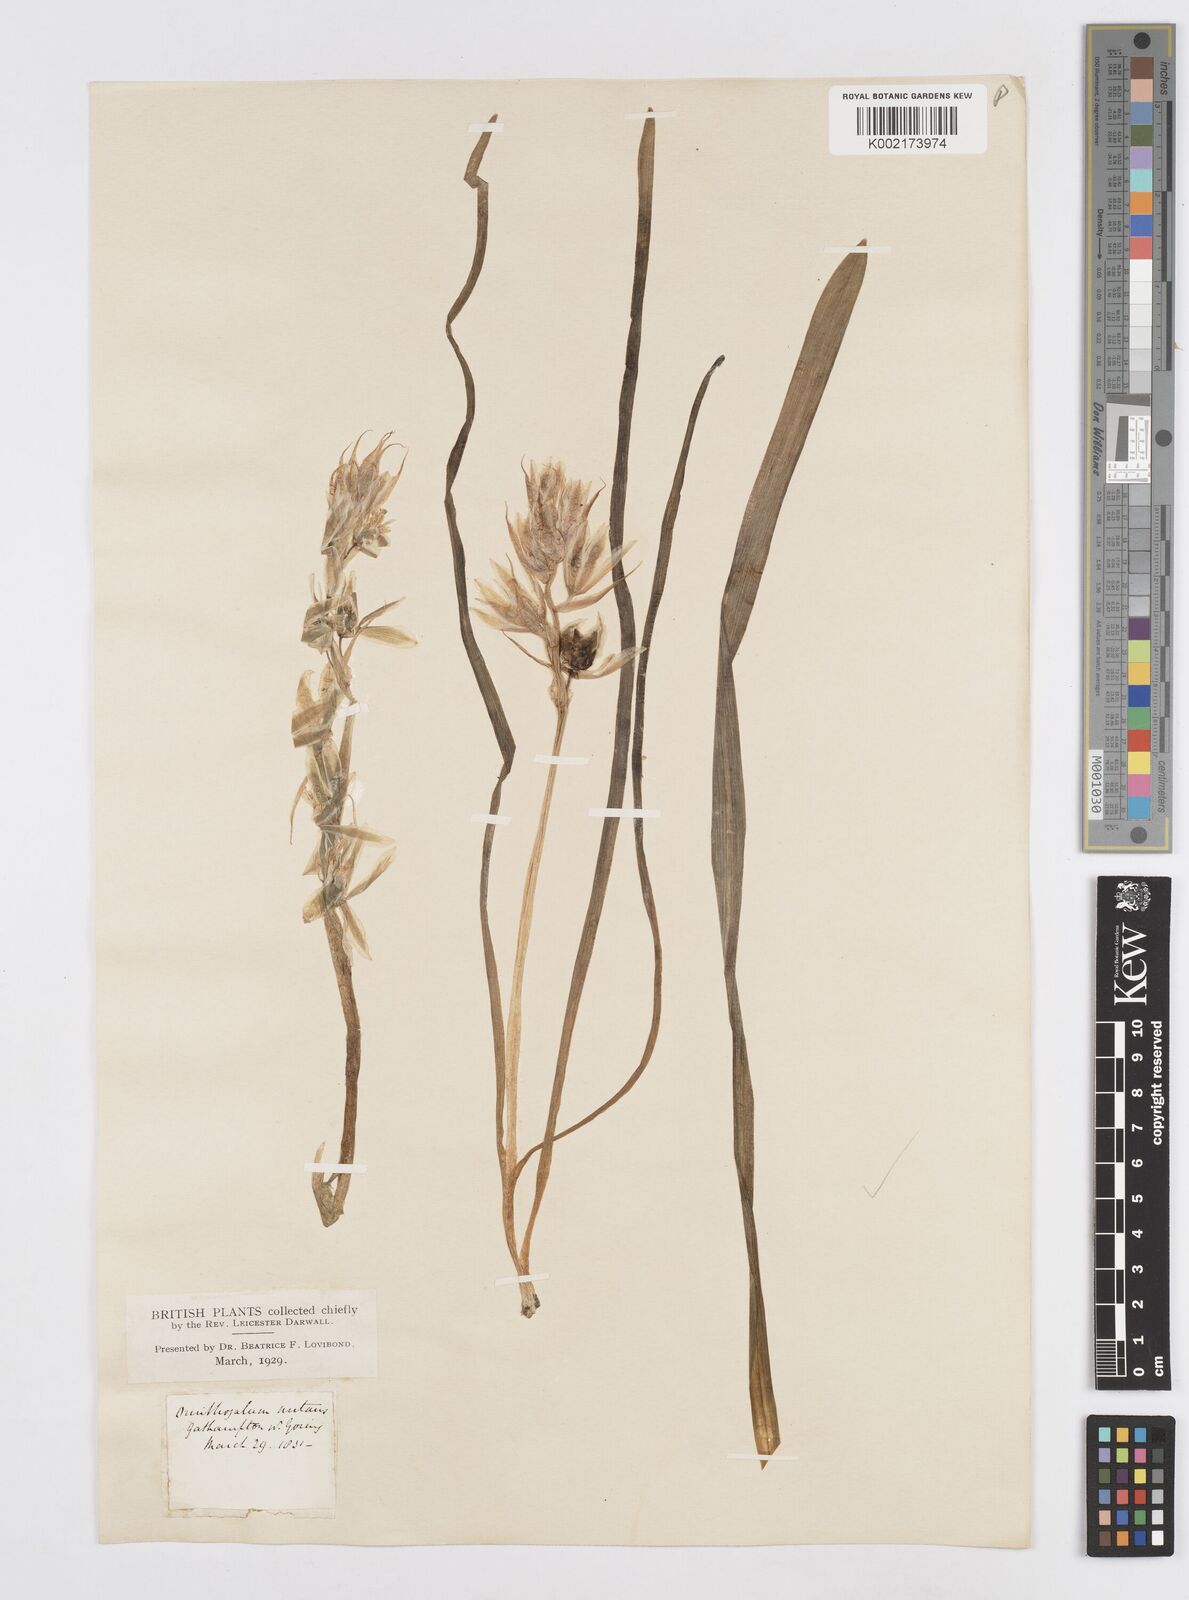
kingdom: Plantae
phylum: Tracheophyta
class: Liliopsida
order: Asparagales
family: Asparagaceae
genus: Ornithogalum
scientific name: Ornithogalum nutans
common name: Drooping star-of-bethlehem
